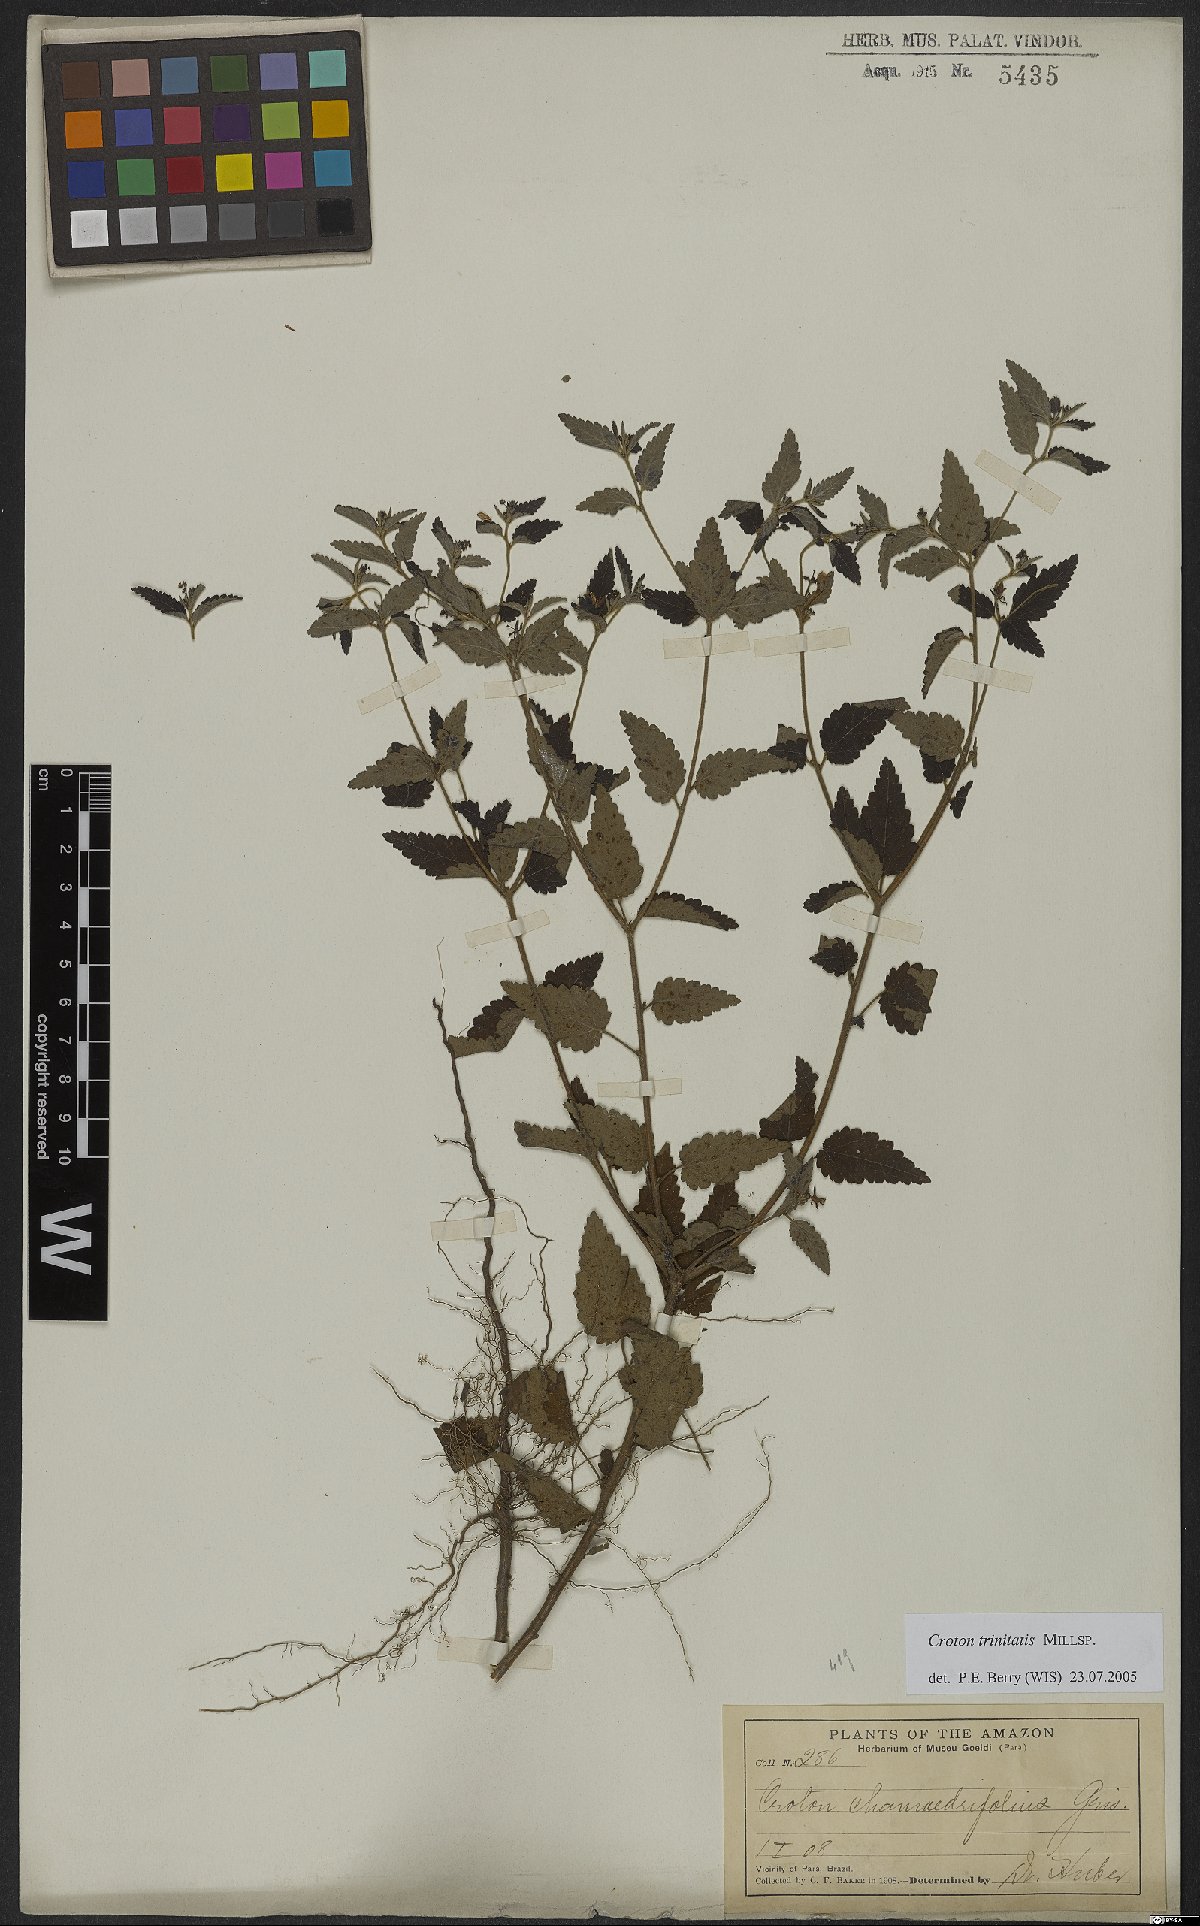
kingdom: Plantae
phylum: Tracheophyta
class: Magnoliopsida
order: Malpighiales
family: Euphorbiaceae
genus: Croton
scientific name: Croton trinitatis
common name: Roadside croton
